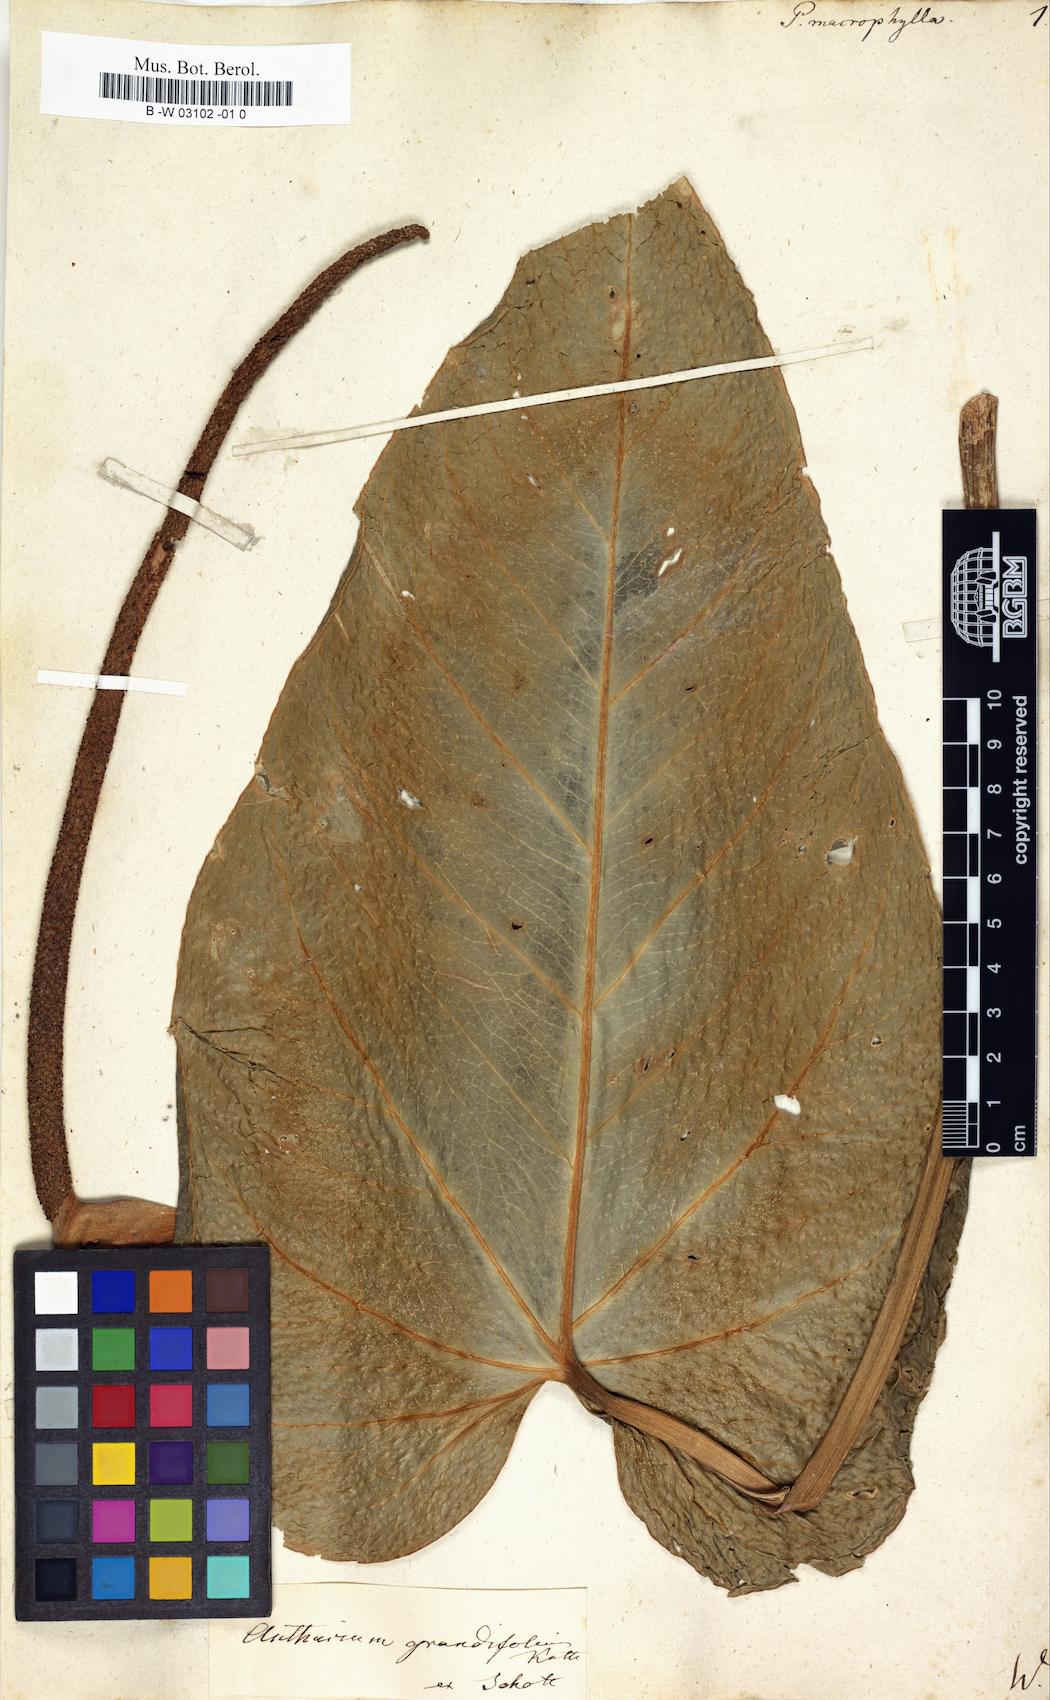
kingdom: Plantae
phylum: Tracheophyta
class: Liliopsida
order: Alismatales
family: Araceae
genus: Pothos
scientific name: Pothos macrophyllus
